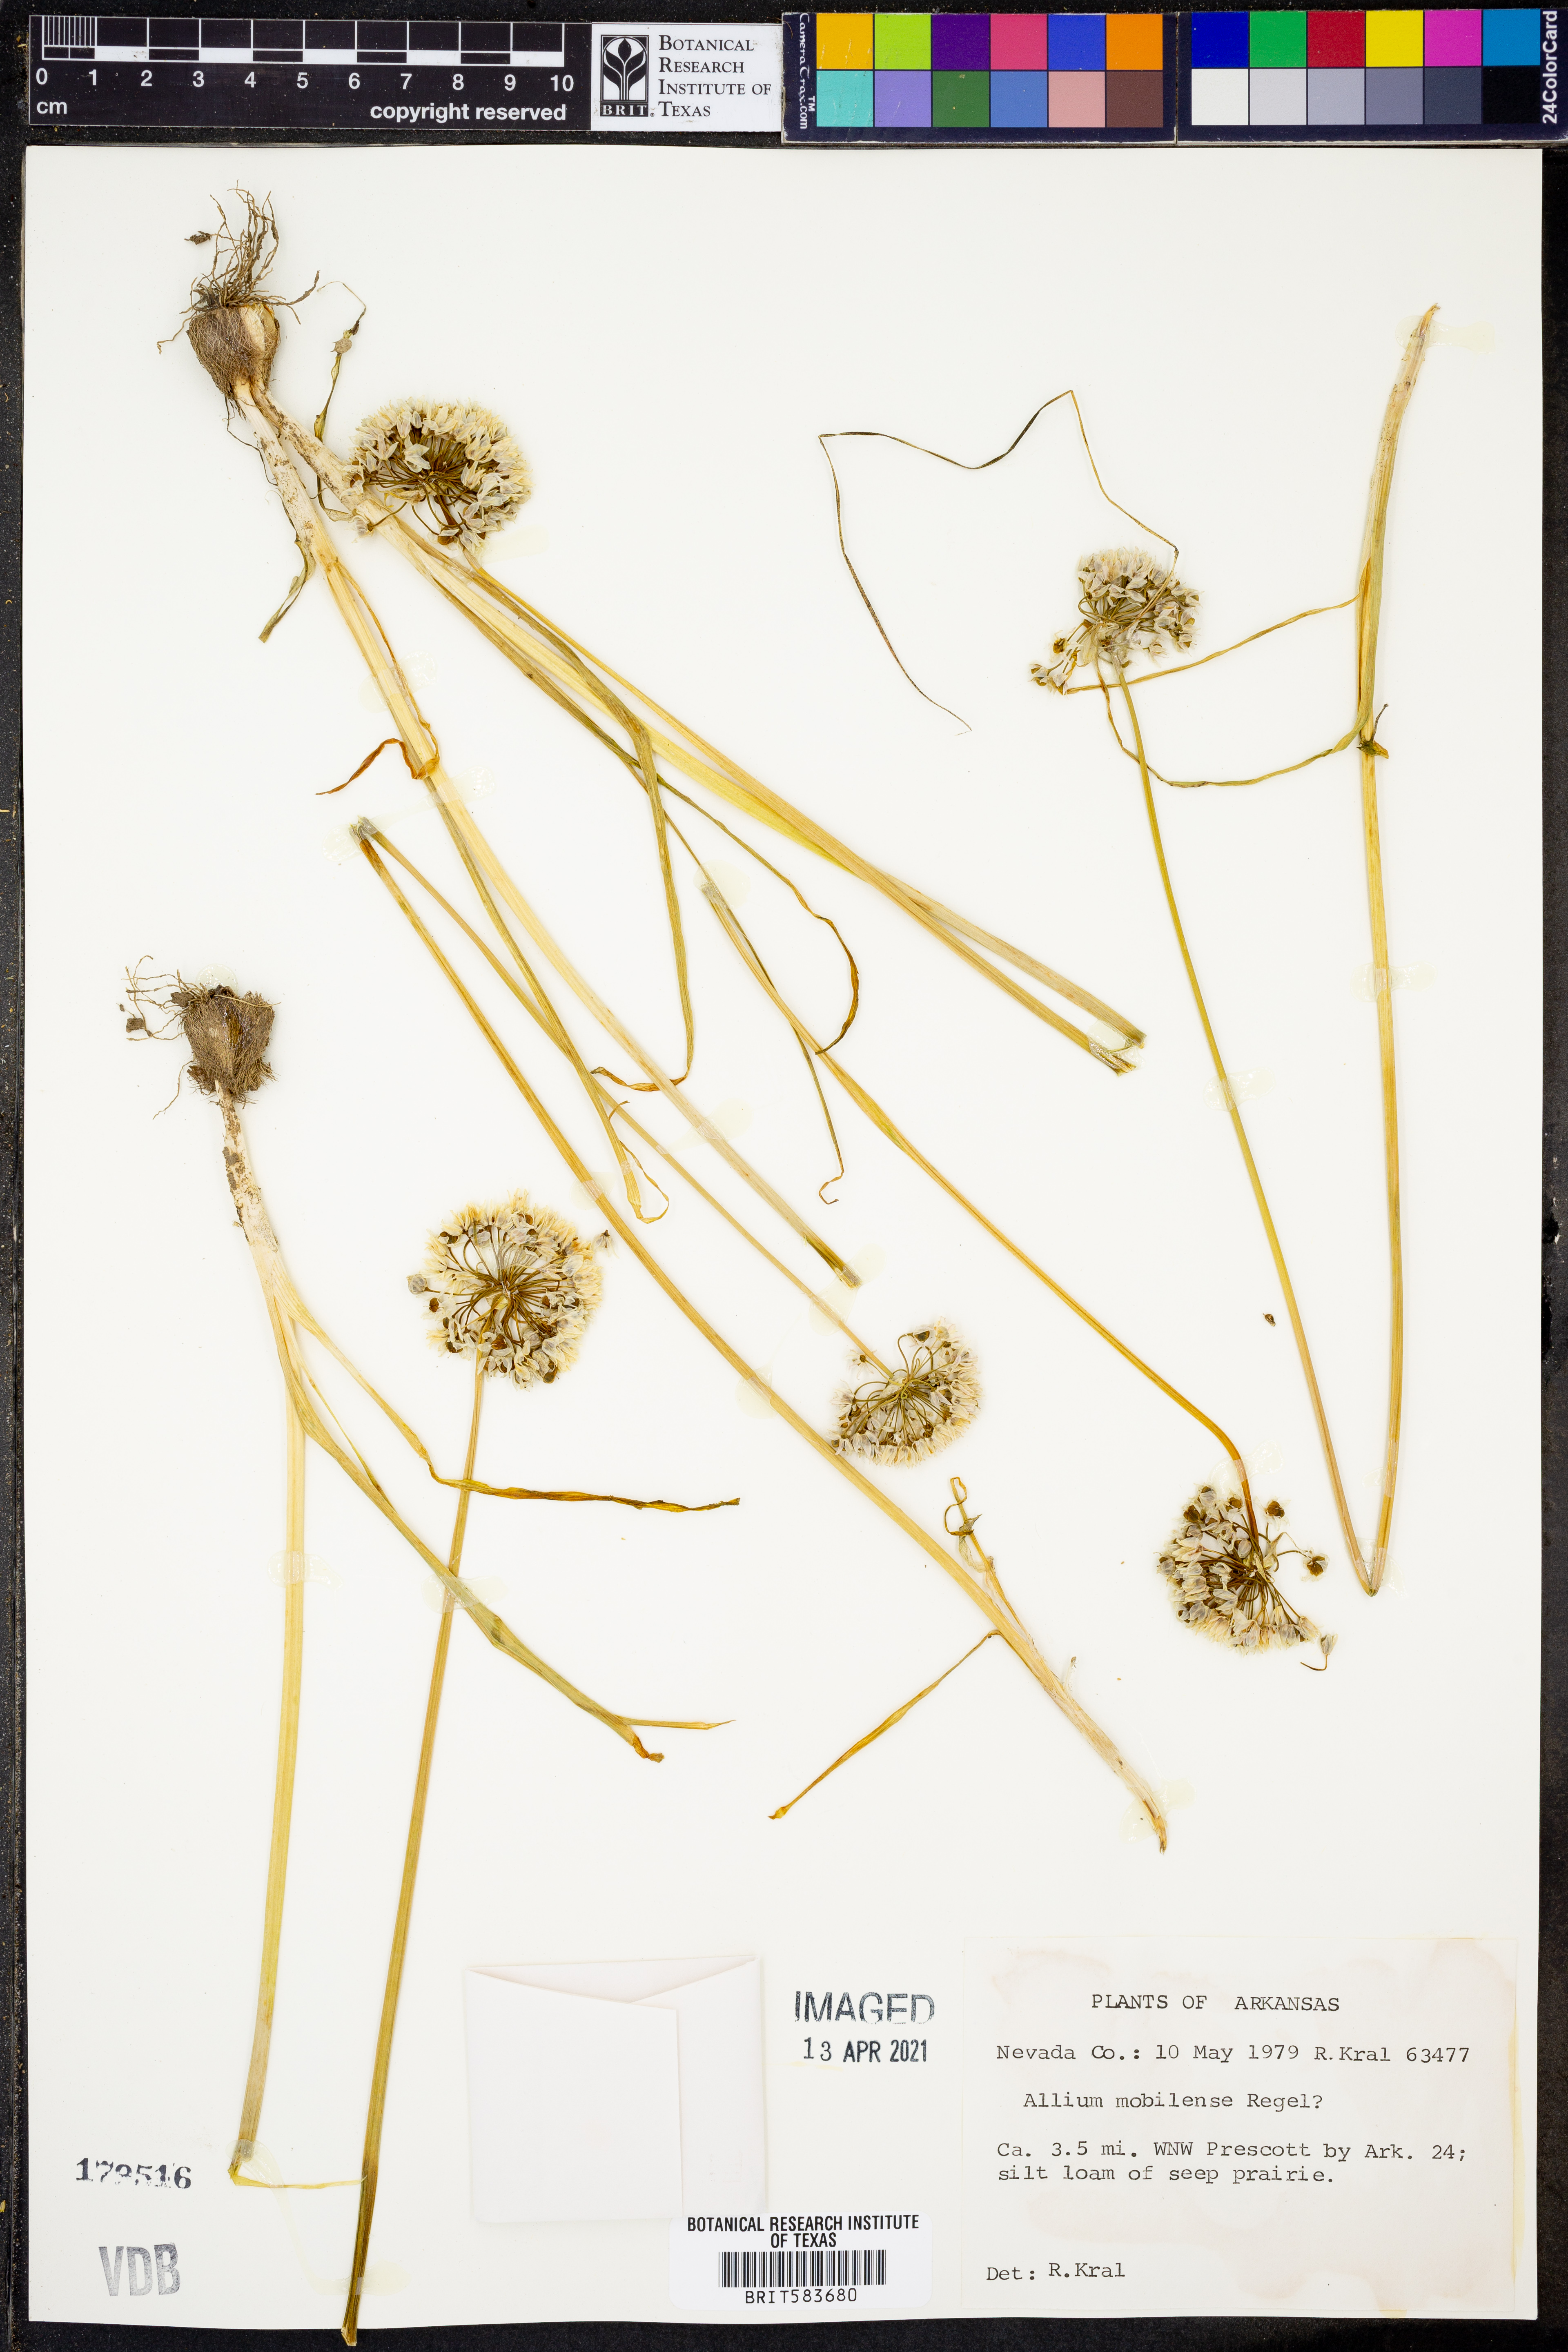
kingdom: Plantae
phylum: Tracheophyta
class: Liliopsida
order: Asparagales
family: Amaryllidaceae
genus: Allium
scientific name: Allium canadense
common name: Meadow garlic
